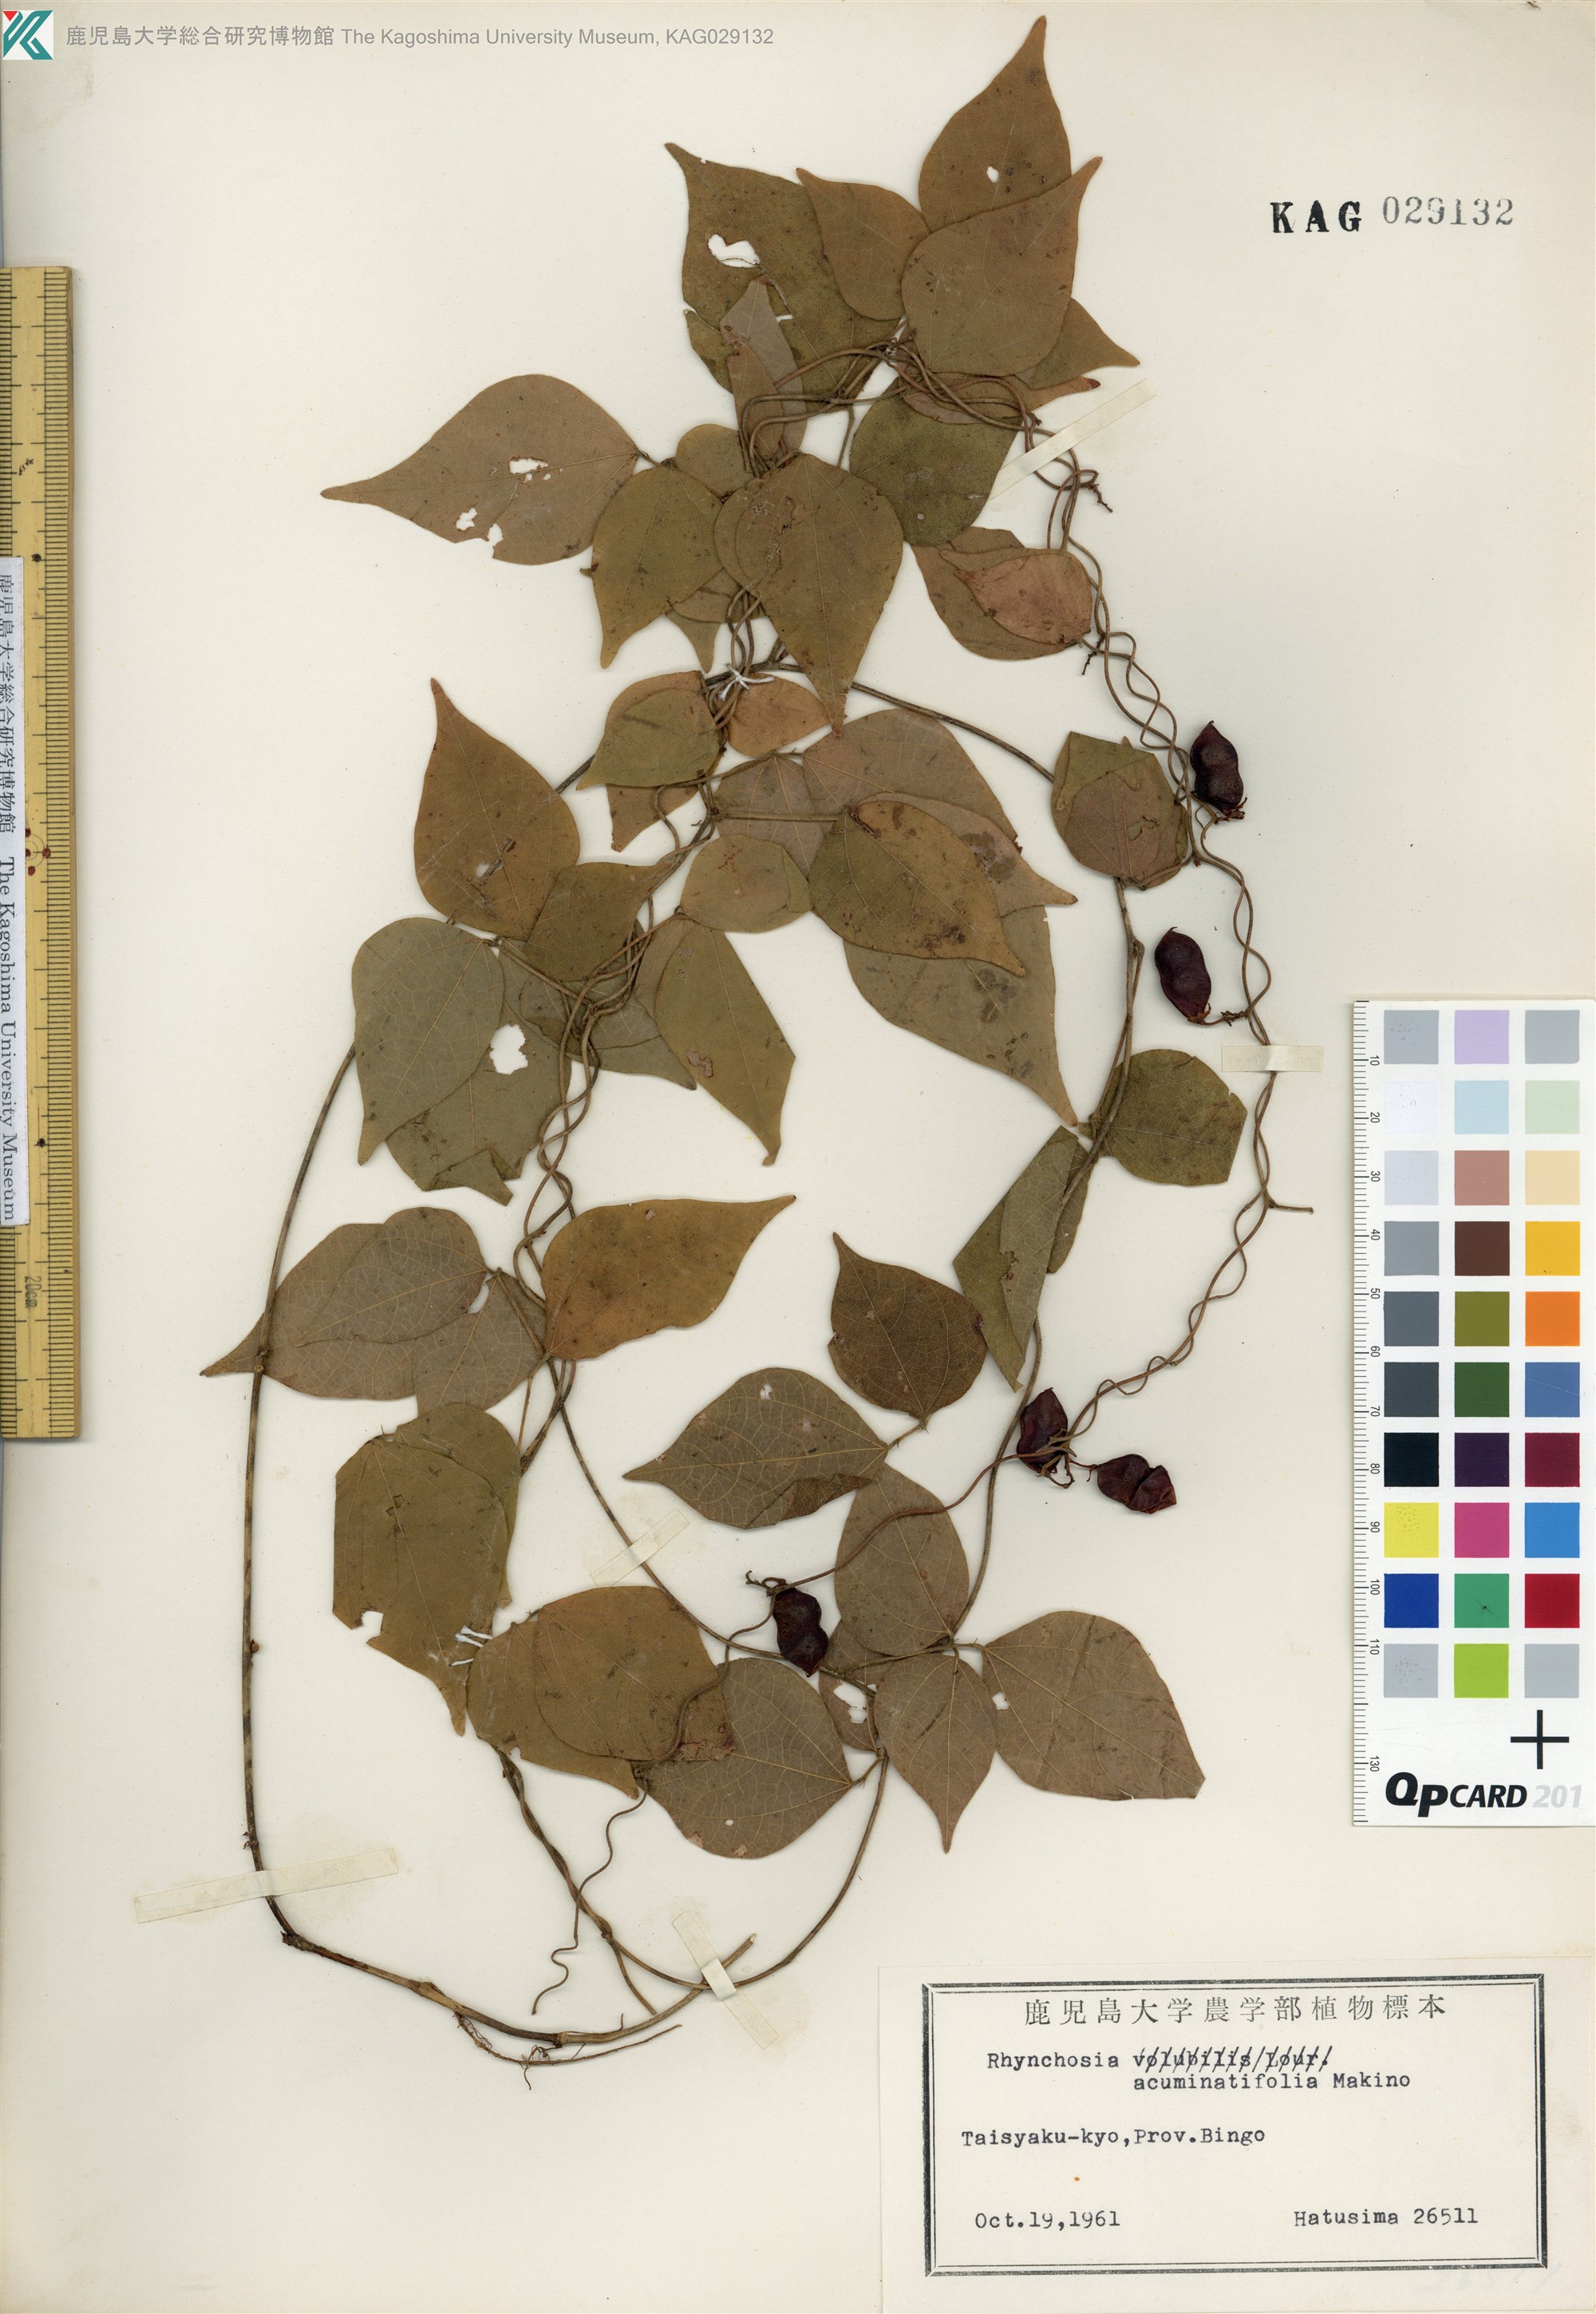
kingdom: Plantae
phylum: Tracheophyta
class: Magnoliopsida
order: Fabales
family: Fabaceae
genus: Rhynchosia
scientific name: Rhynchosia acuminatifolia
